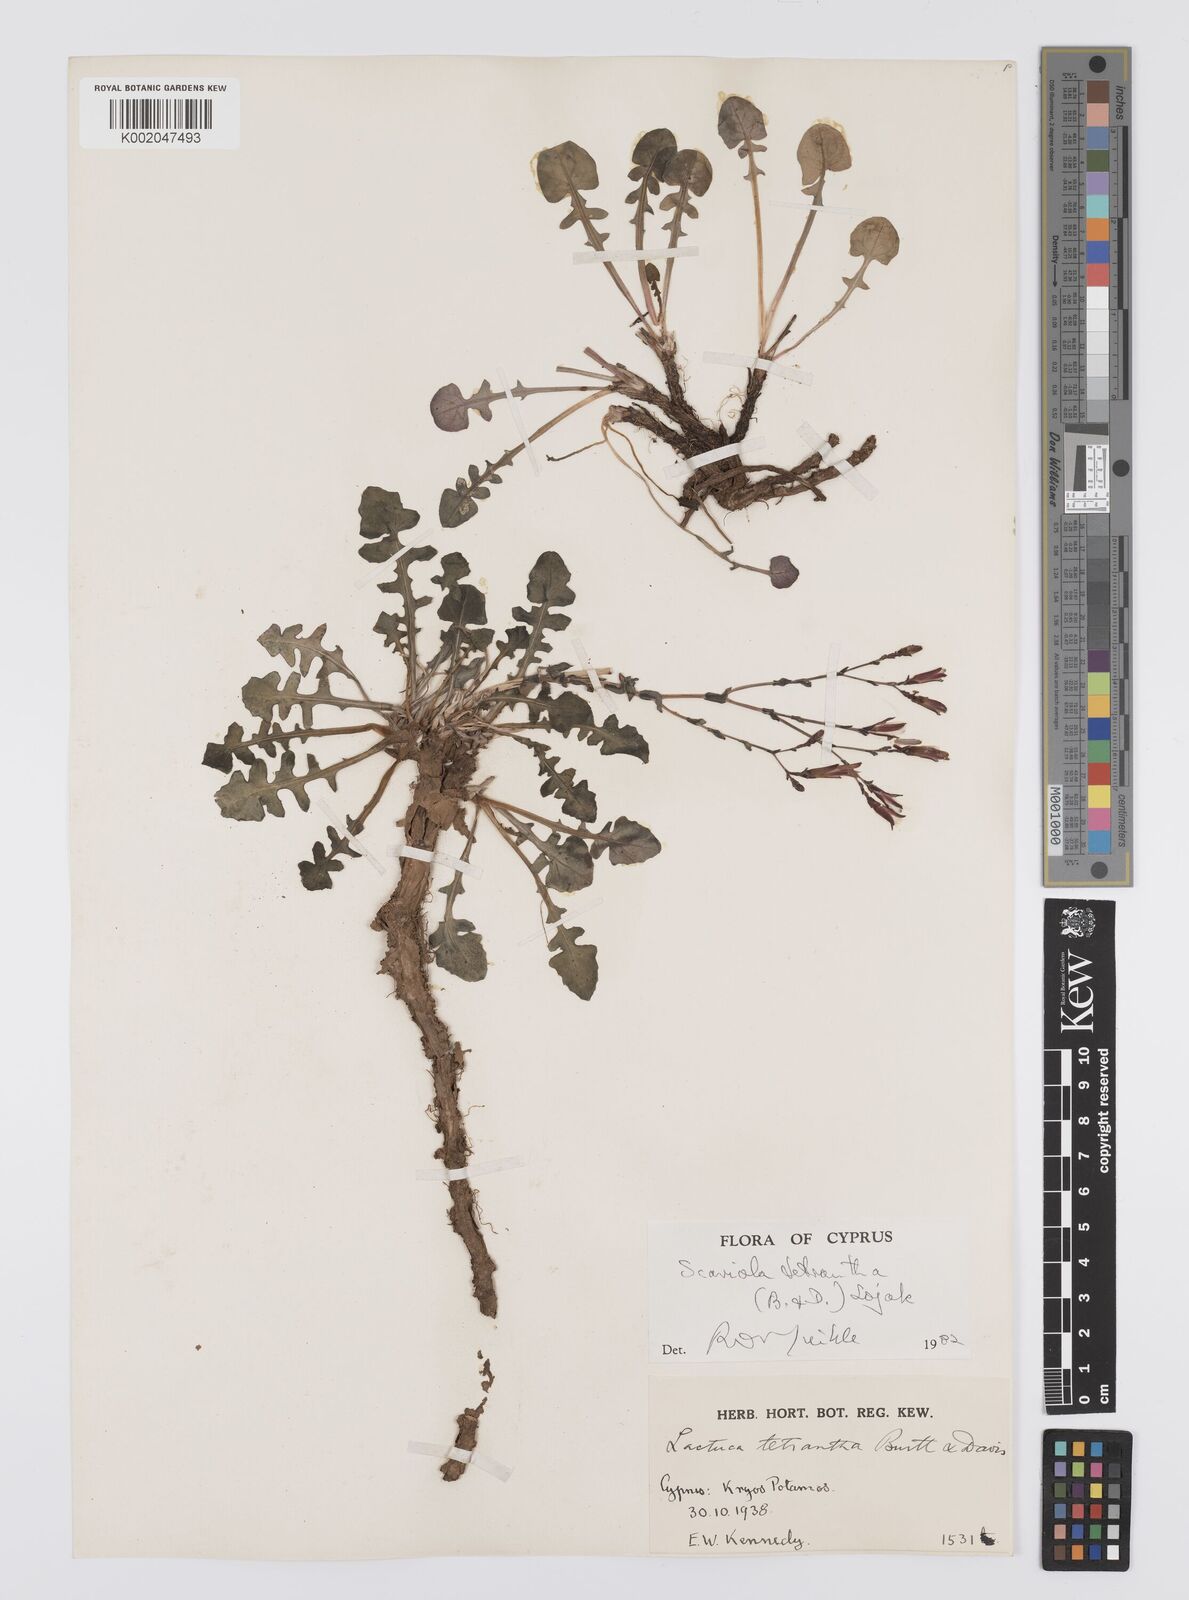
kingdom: Plantae
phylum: Tracheophyta
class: Magnoliopsida
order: Asterales
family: Asteraceae
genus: Lactuca
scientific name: Lactuca tetrantha
